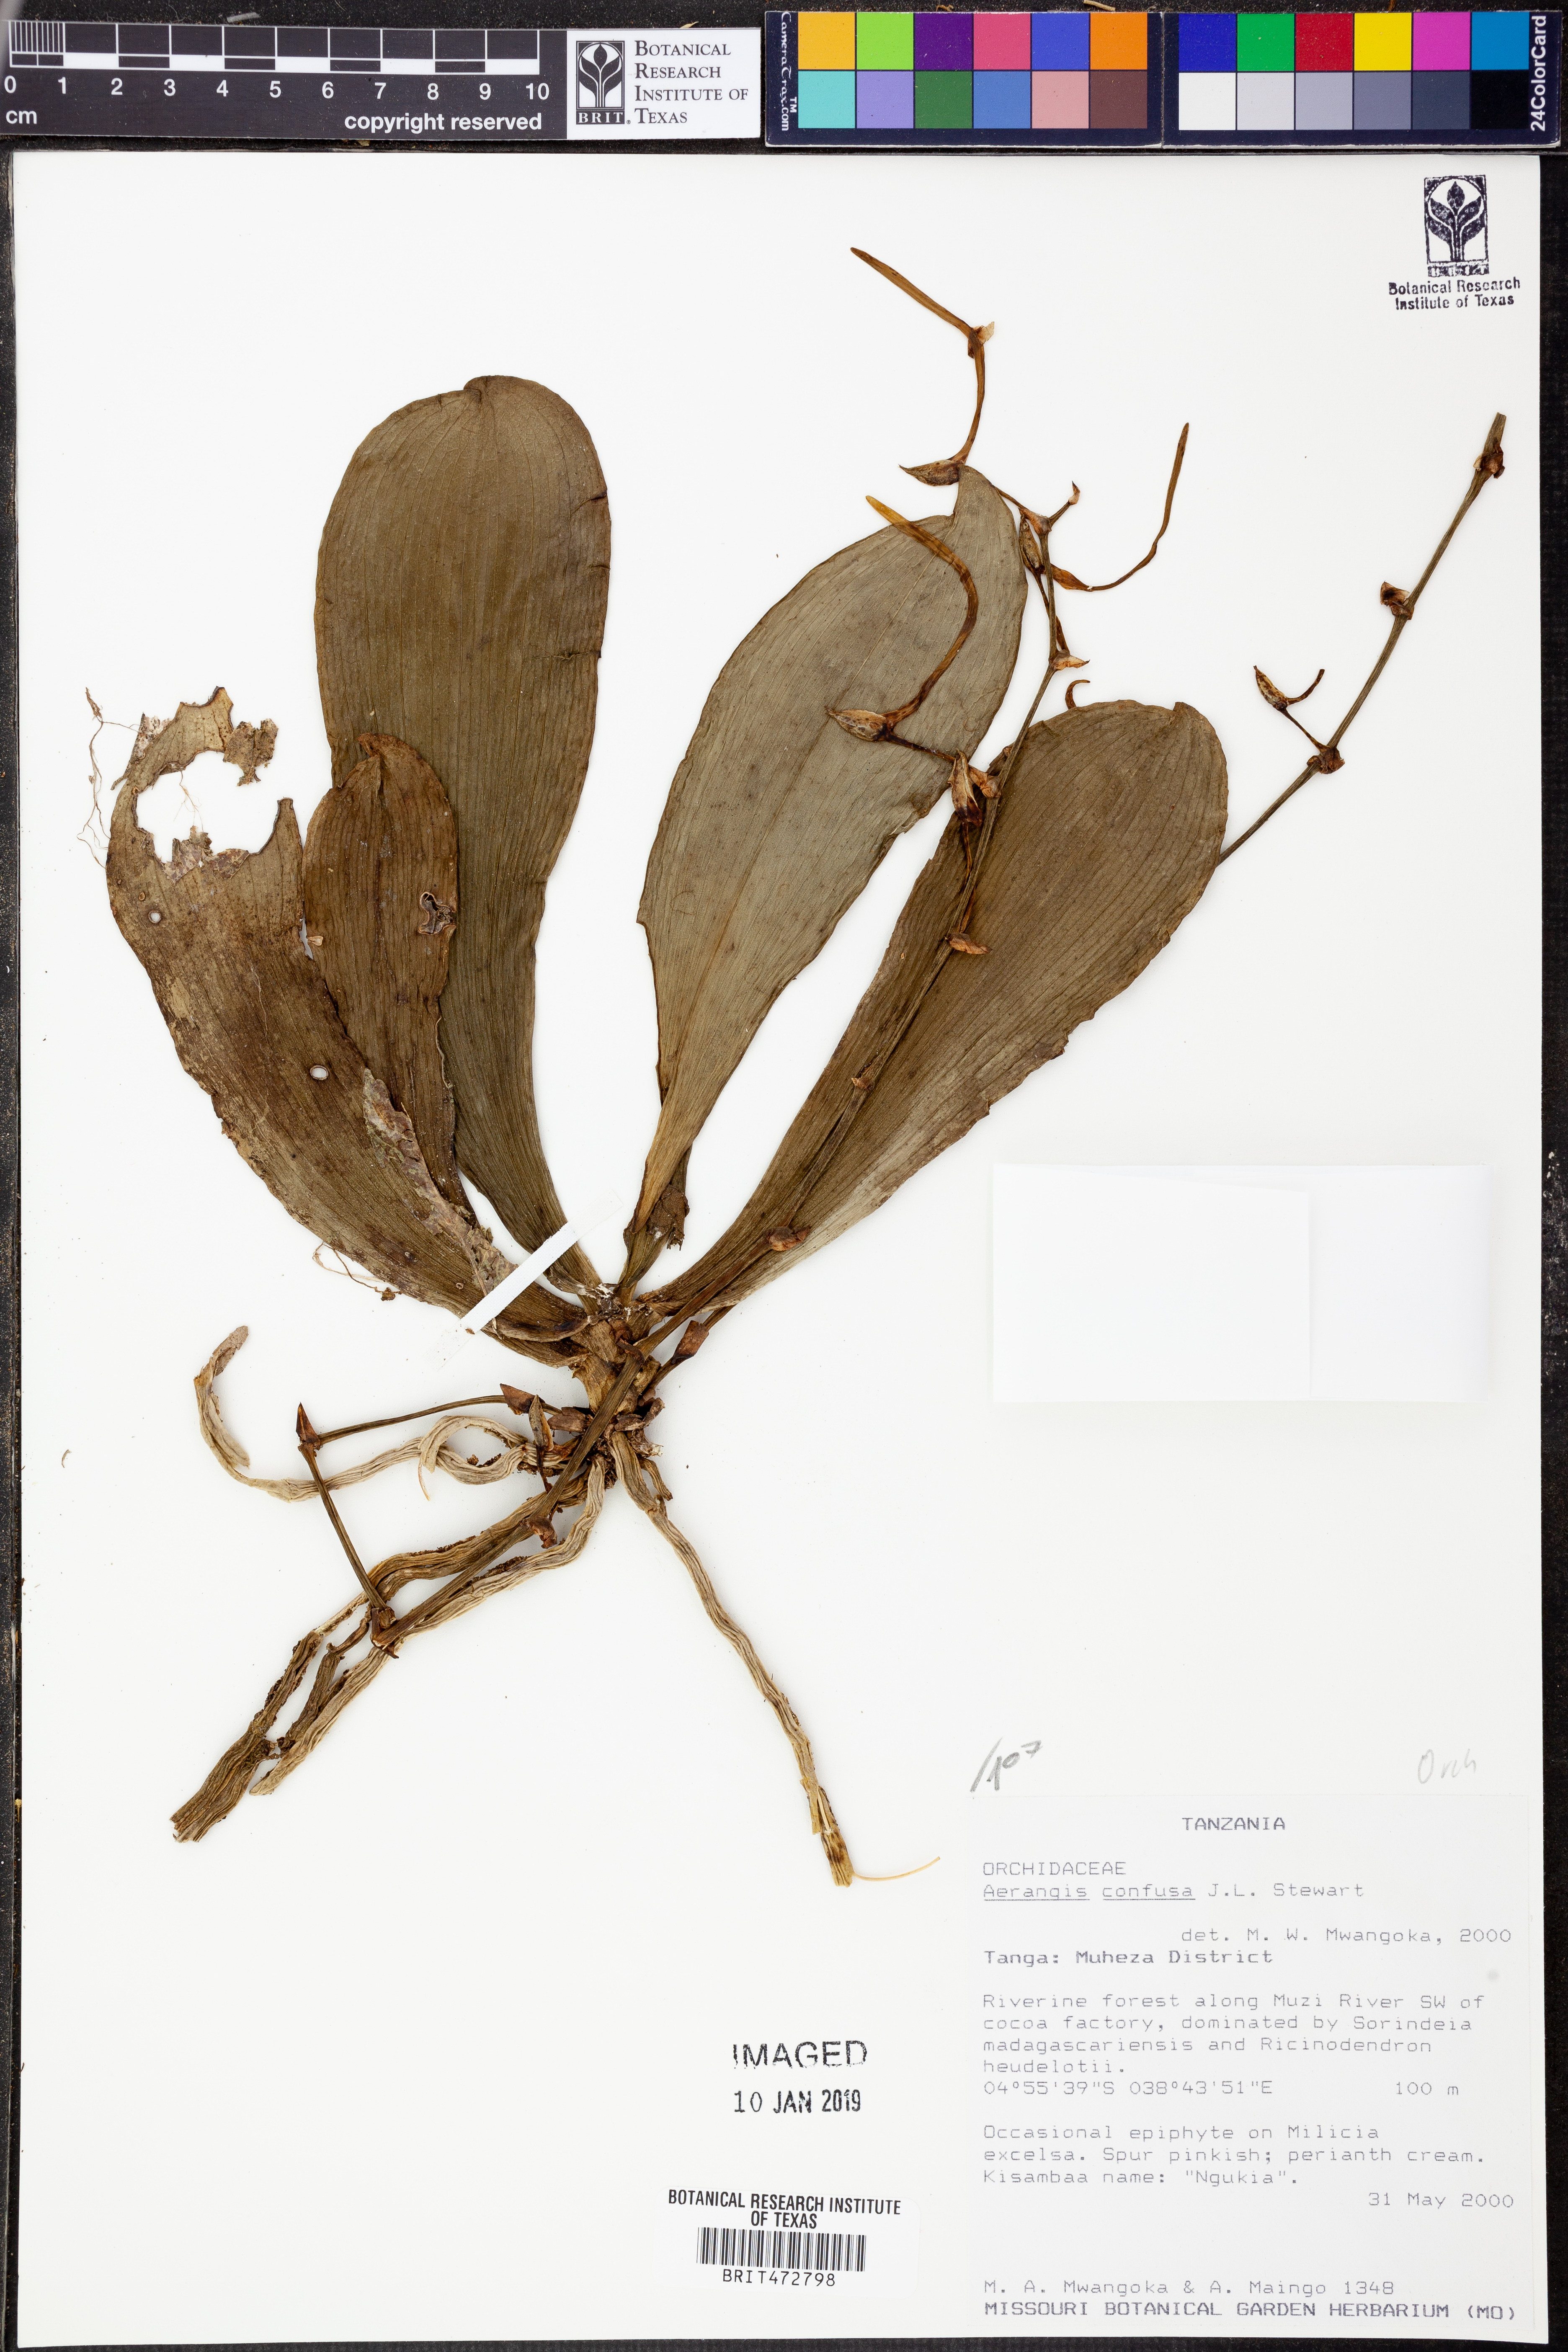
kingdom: Plantae
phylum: Tracheophyta
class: Liliopsida
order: Asparagales
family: Orchidaceae
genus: Aerangis
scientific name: Aerangis confusa
